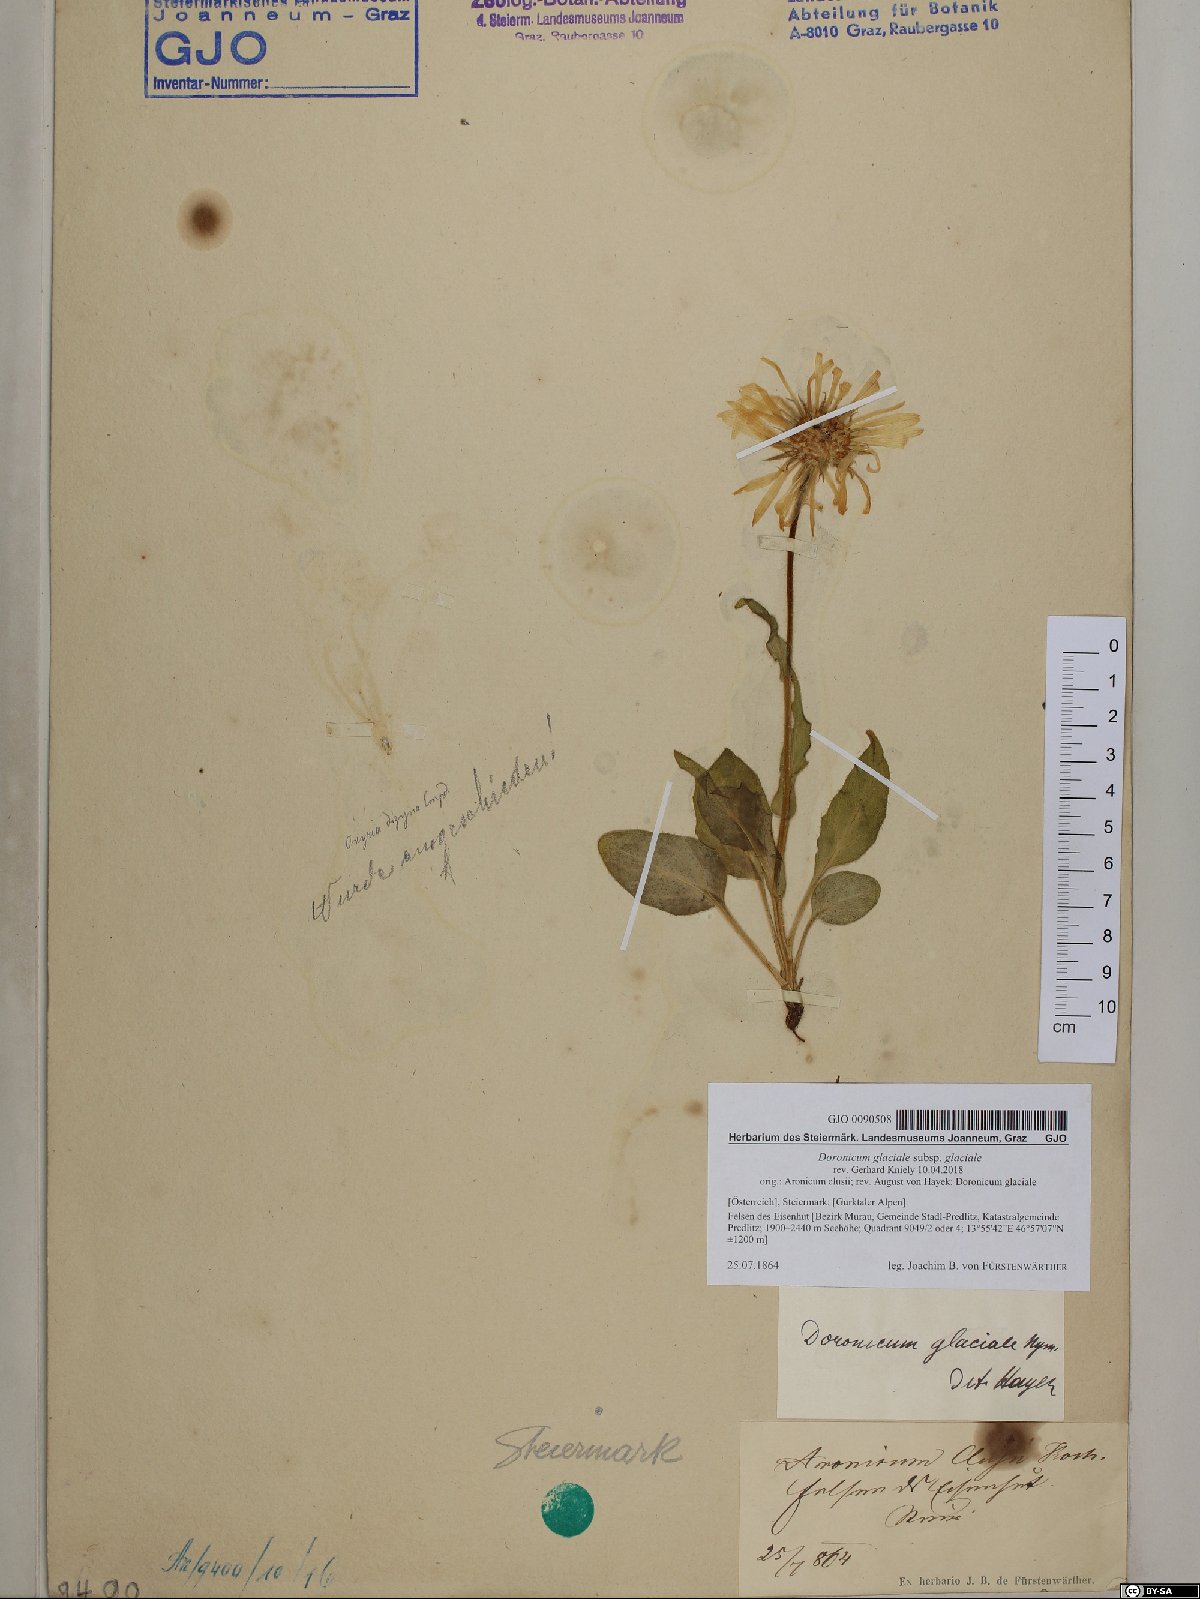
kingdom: Plantae
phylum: Tracheophyta
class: Magnoliopsida
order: Asterales
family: Asteraceae
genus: Doronicum
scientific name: Doronicum glaciale
